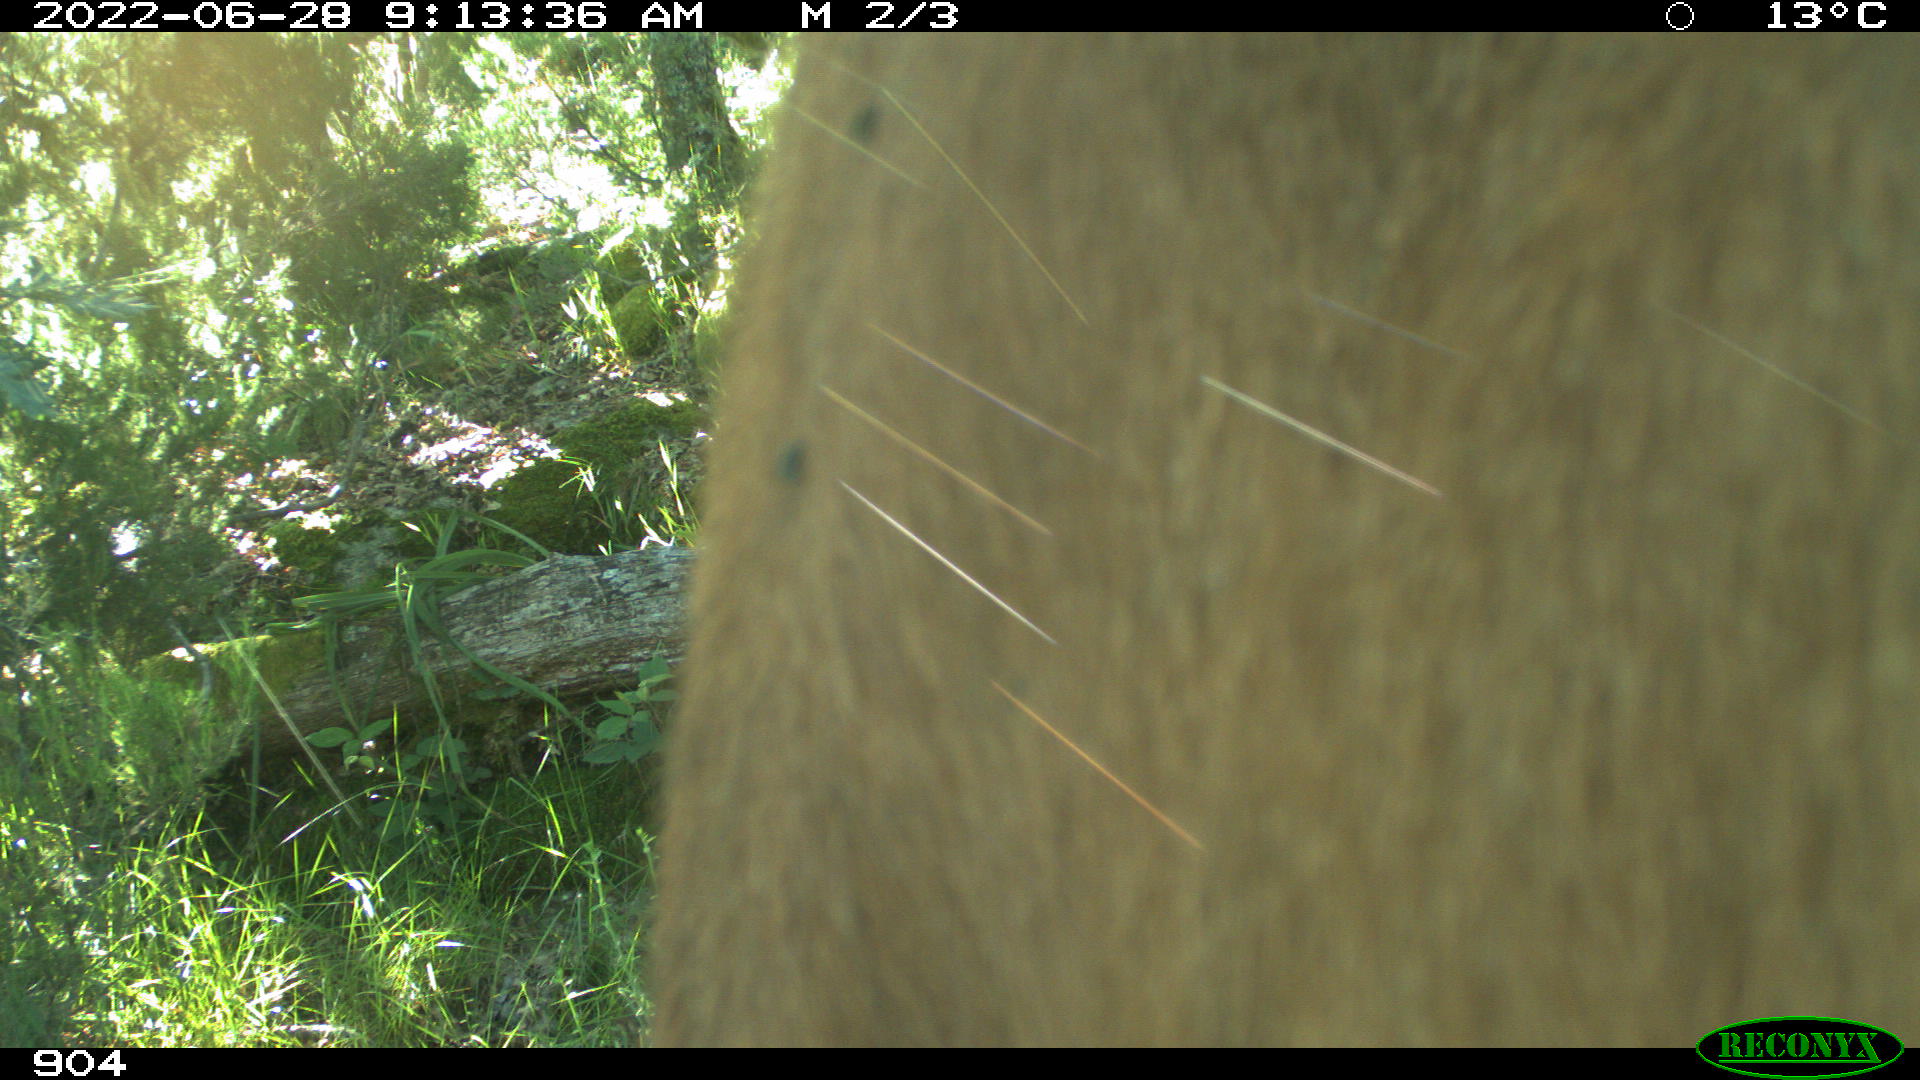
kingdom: Animalia
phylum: Chordata
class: Mammalia
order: Artiodactyla
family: Bovidae
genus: Bos
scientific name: Bos taurus
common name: Domesticated cattle
